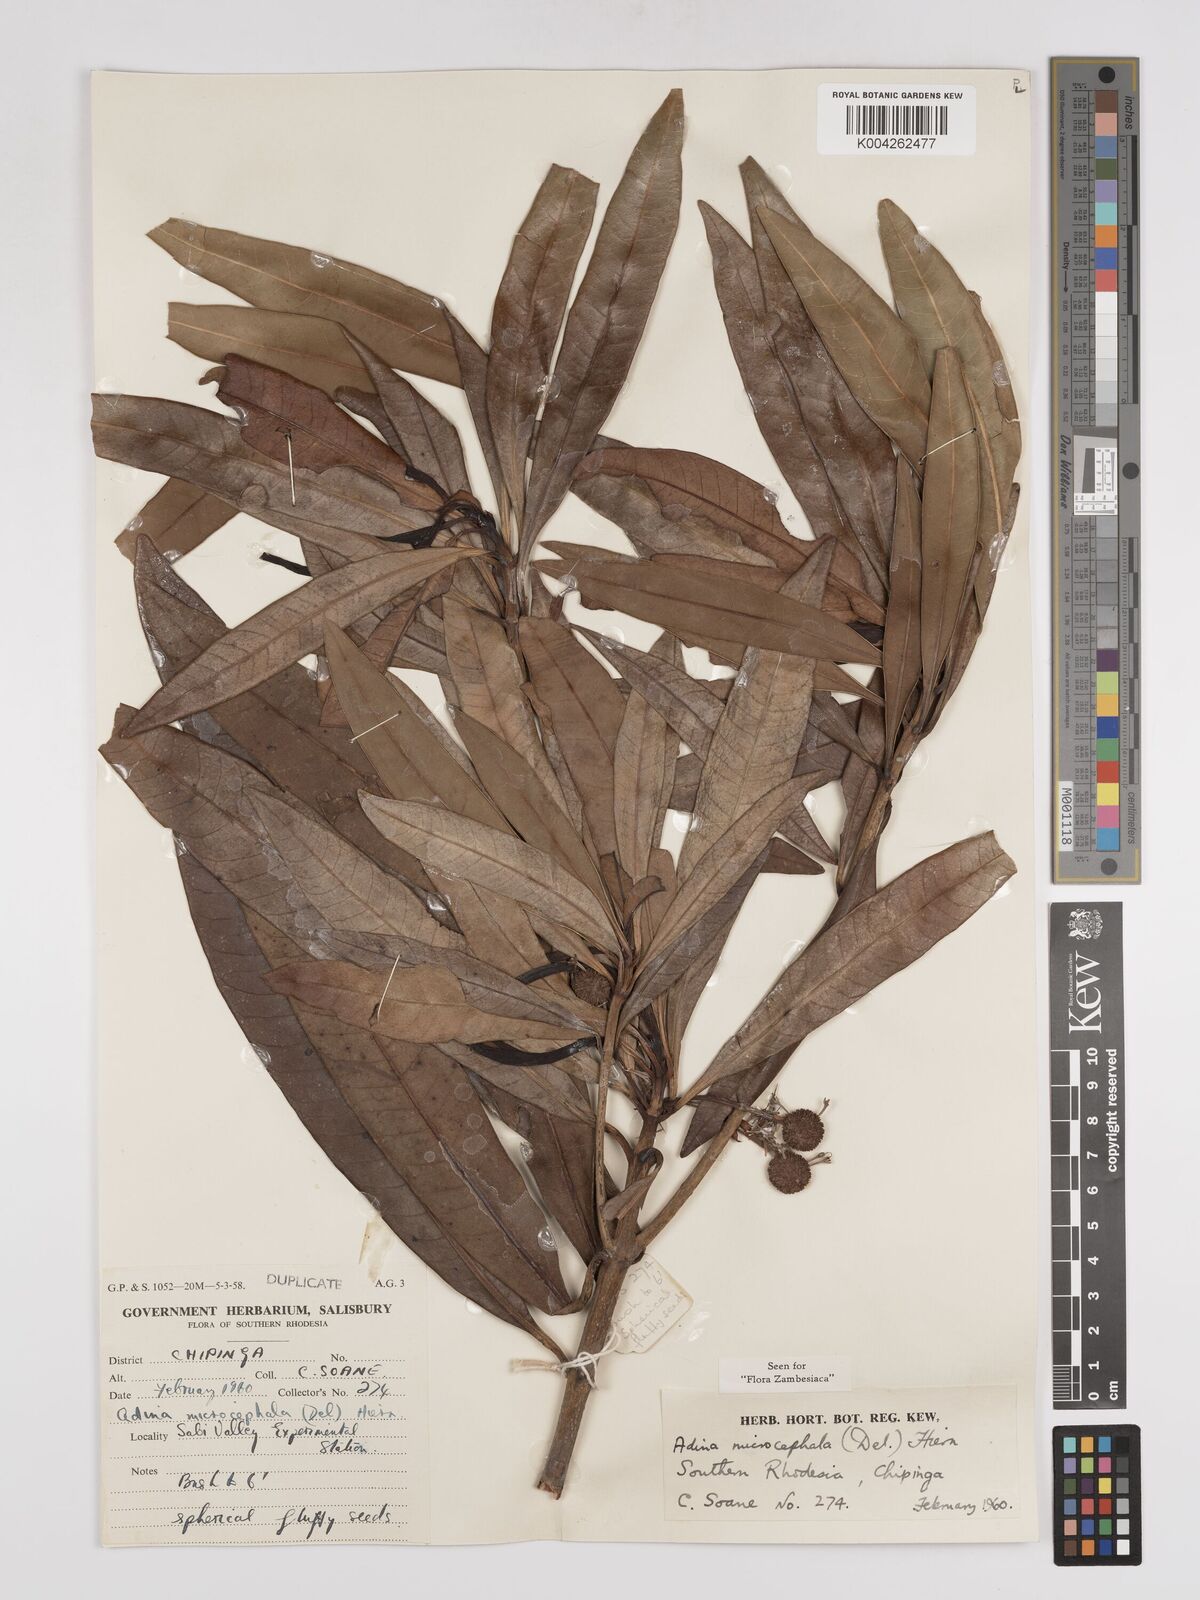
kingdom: Plantae
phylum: Tracheophyta
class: Magnoliopsida
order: Gentianales
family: Rubiaceae
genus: Breonadia
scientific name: Breonadia salicina
